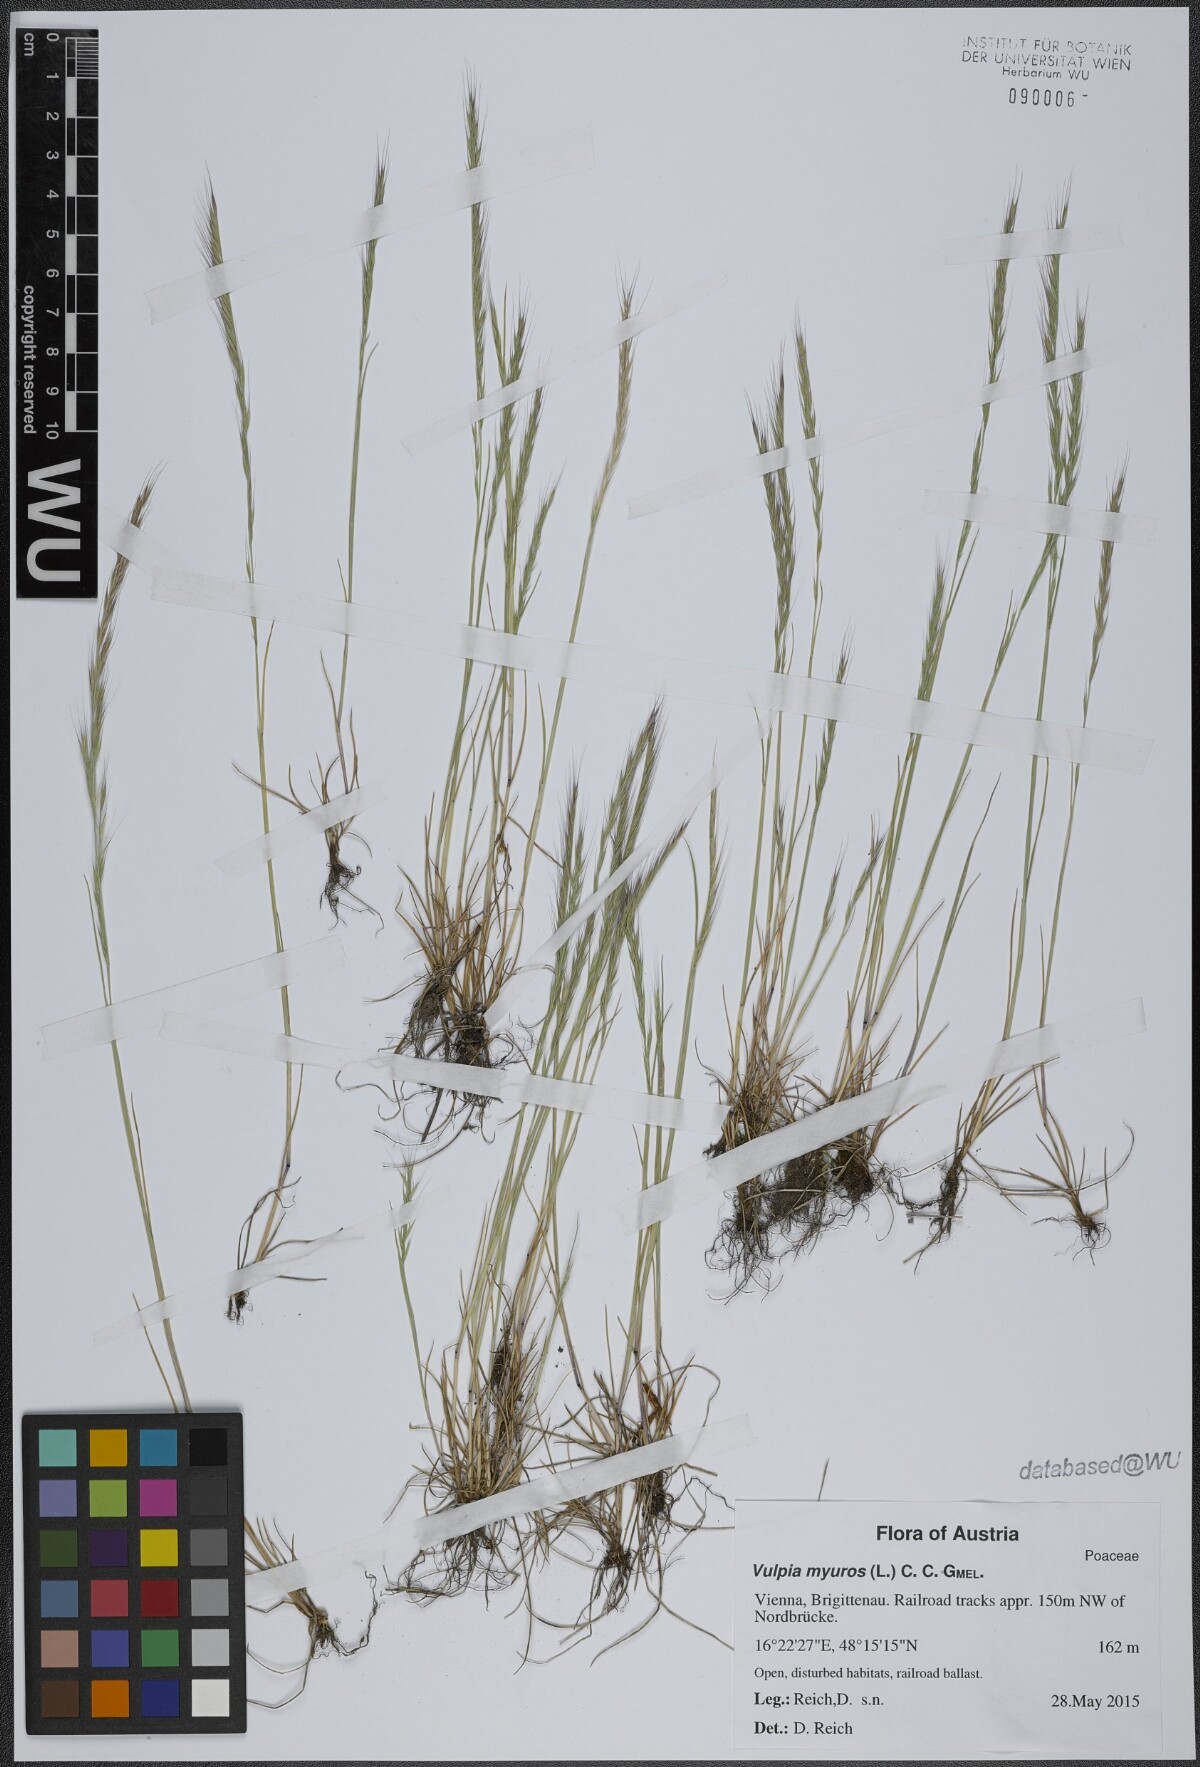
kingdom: Plantae
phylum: Tracheophyta
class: Liliopsida
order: Poales
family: Poaceae
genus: Festuca
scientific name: Festuca myuros
